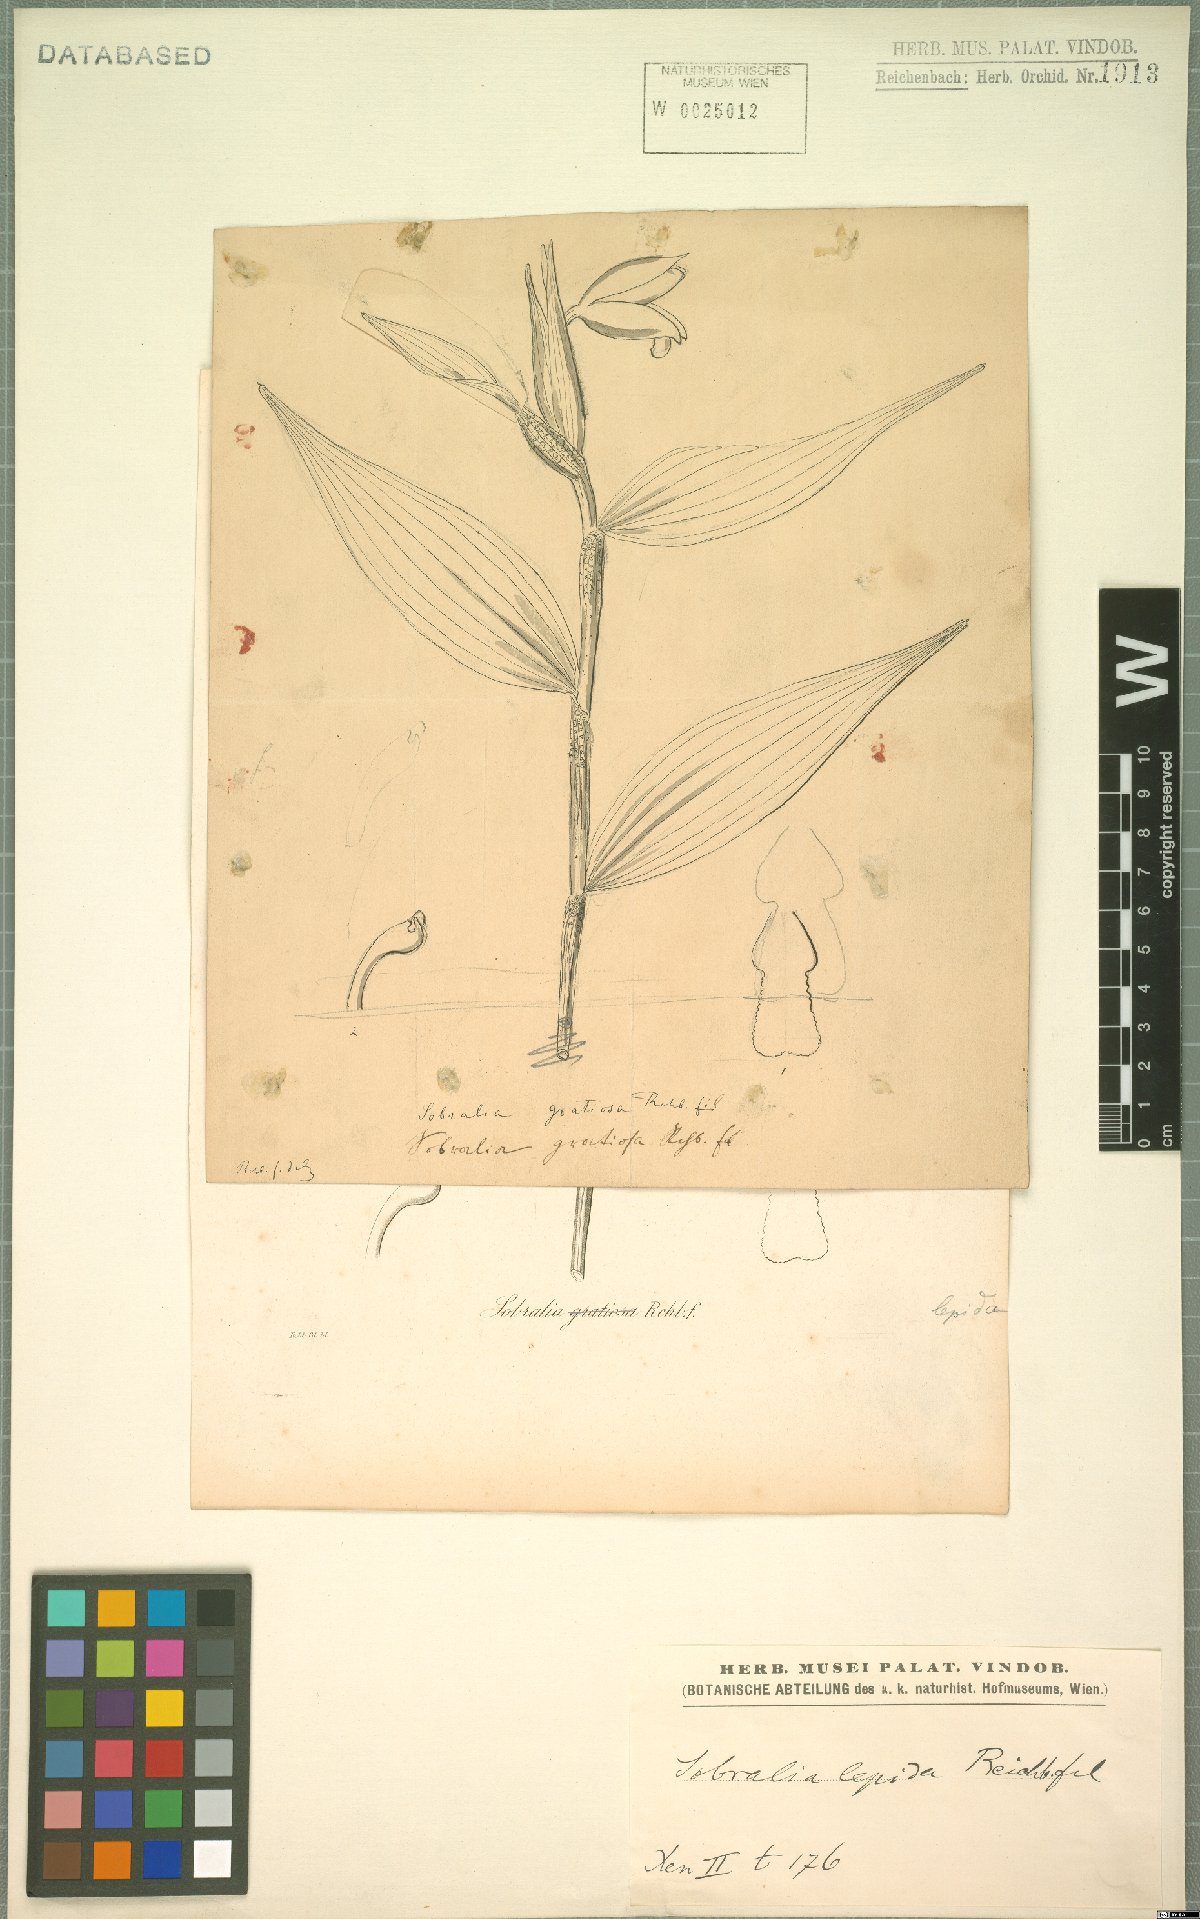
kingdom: Plantae
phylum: Tracheophyta
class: Liliopsida
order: Asparagales
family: Orchidaceae
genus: Sobralia
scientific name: Sobralia amabilis
